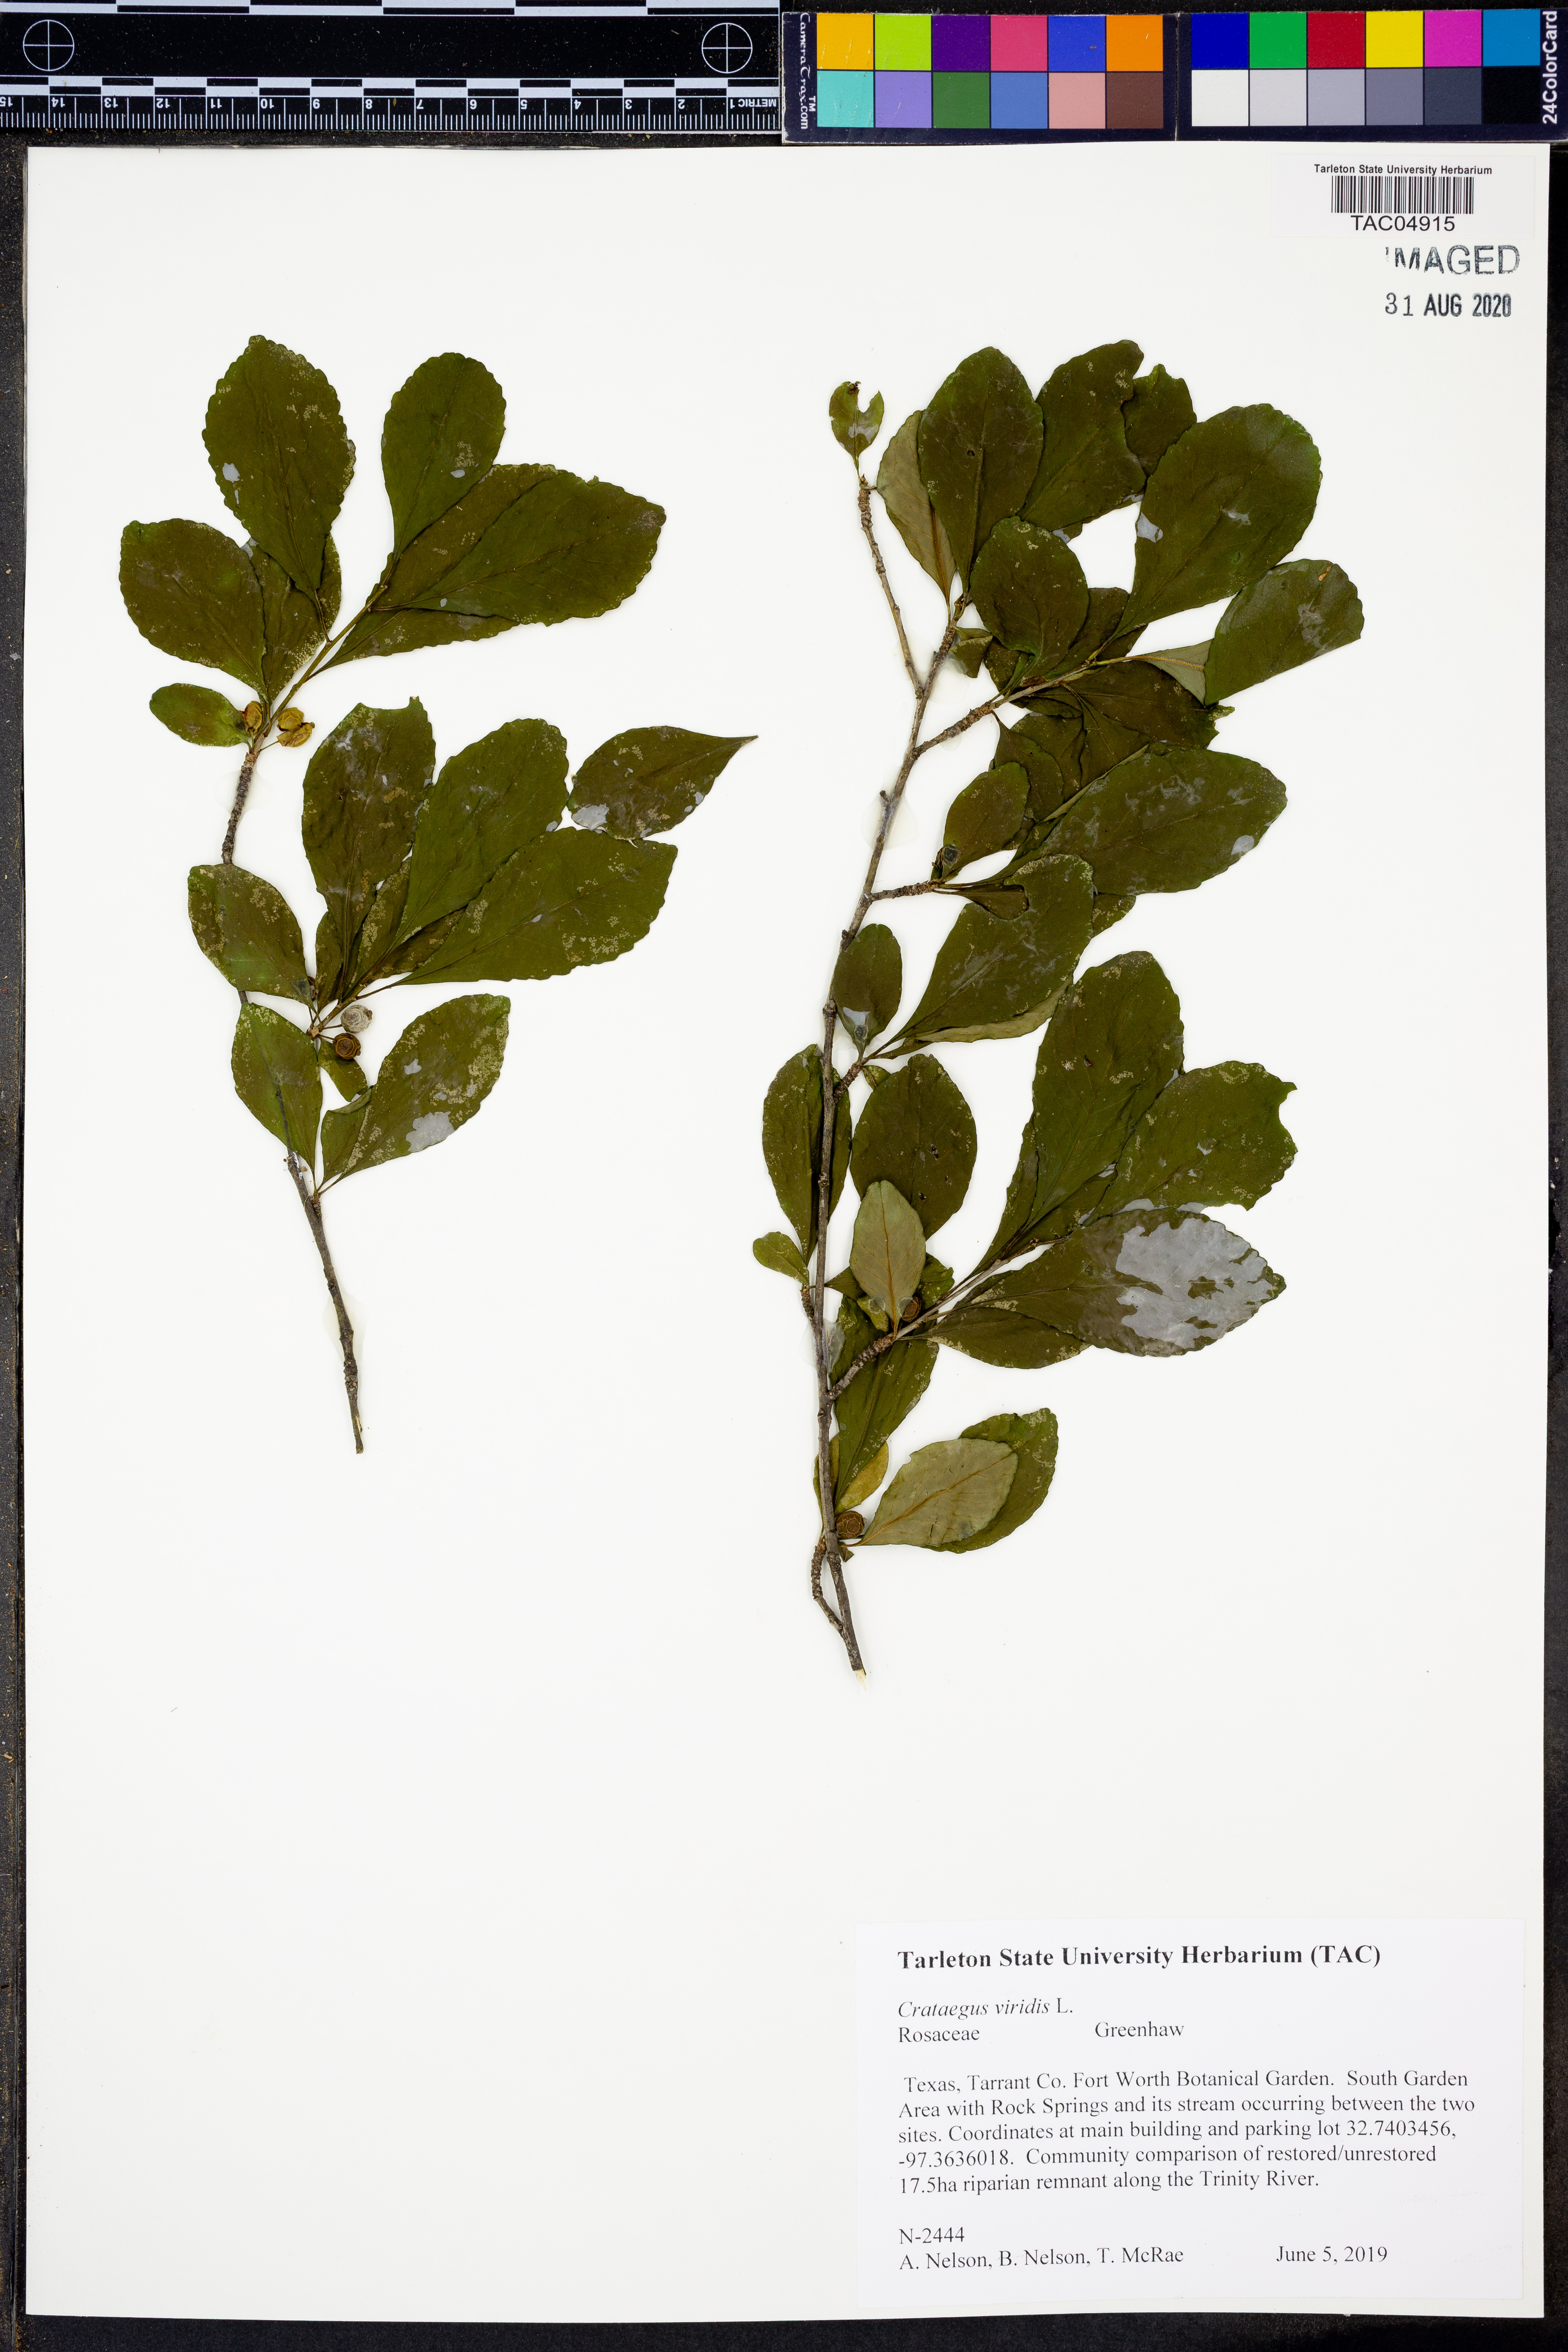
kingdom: Plantae
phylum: Tracheophyta
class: Magnoliopsida
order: Rosales
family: Rosaceae
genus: Crataegus
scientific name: Crataegus viridis
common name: Southernthorn
